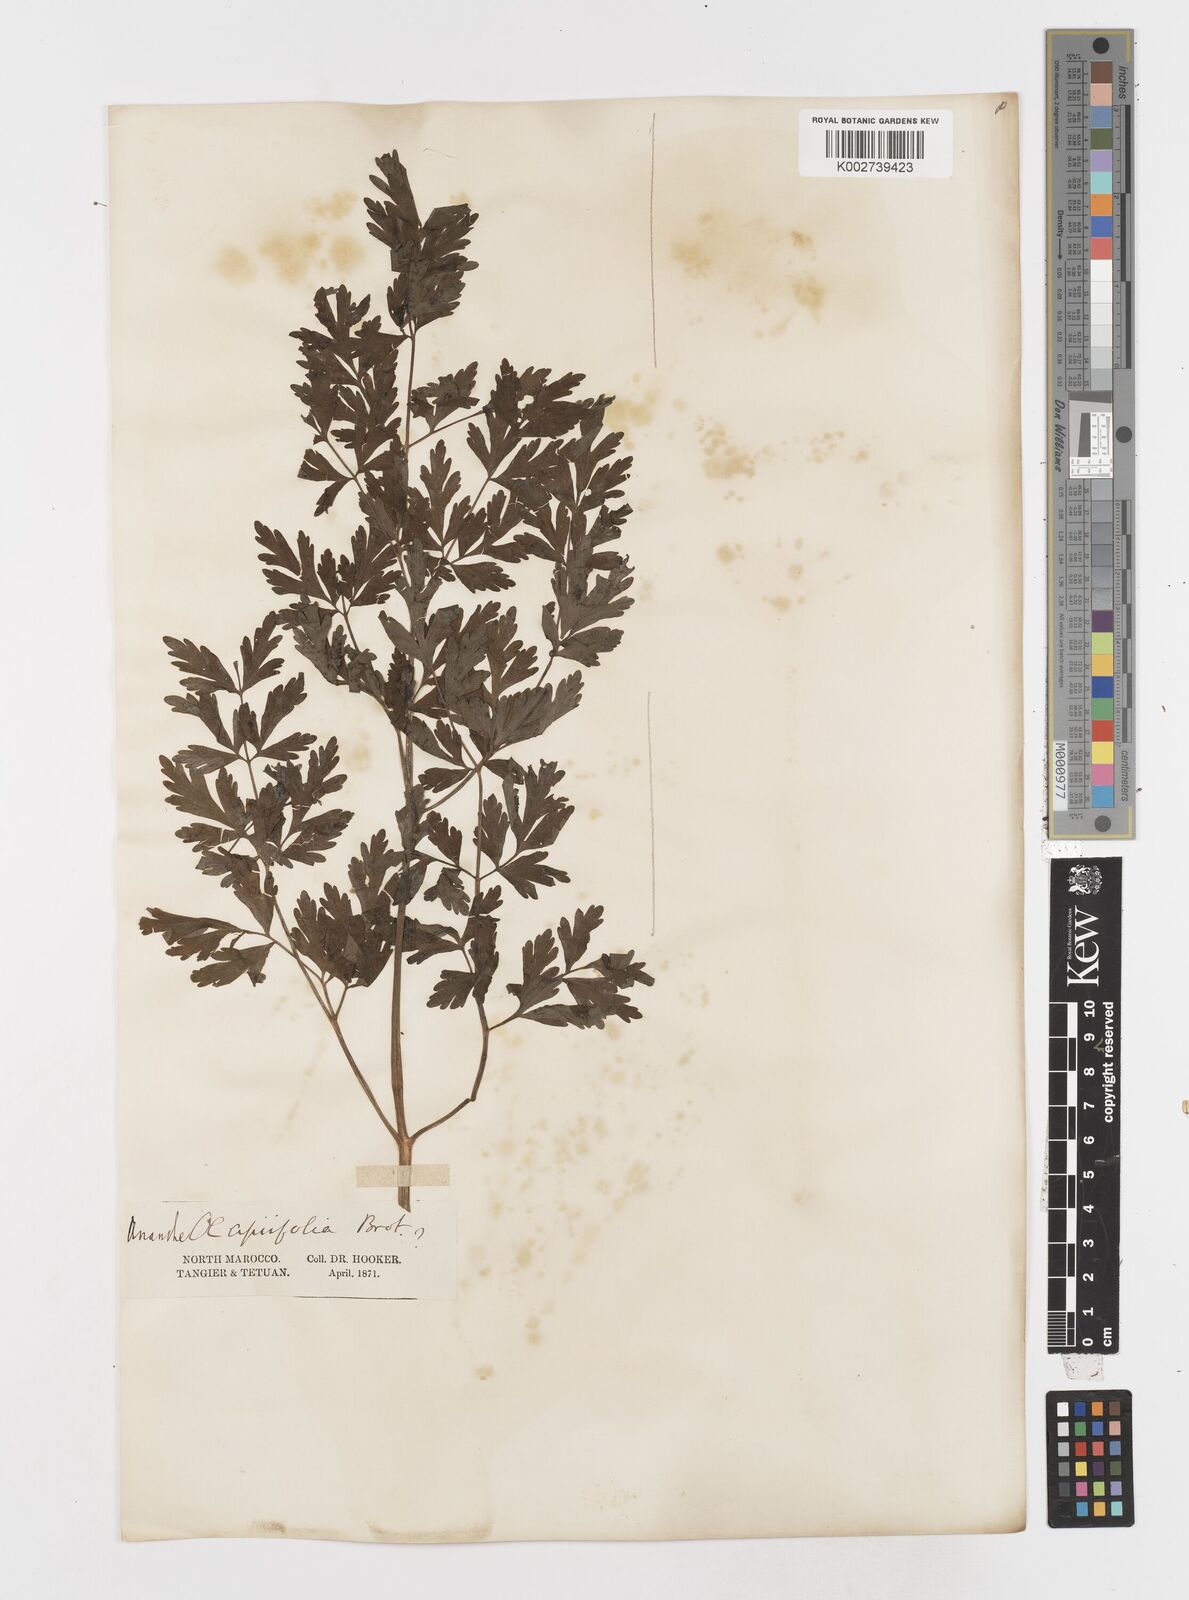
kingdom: Plantae
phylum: Tracheophyta
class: Magnoliopsida
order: Apiales
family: Apiaceae
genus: Oenanthe
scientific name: Oenanthe crocata
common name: Hemlock water-dropwort
